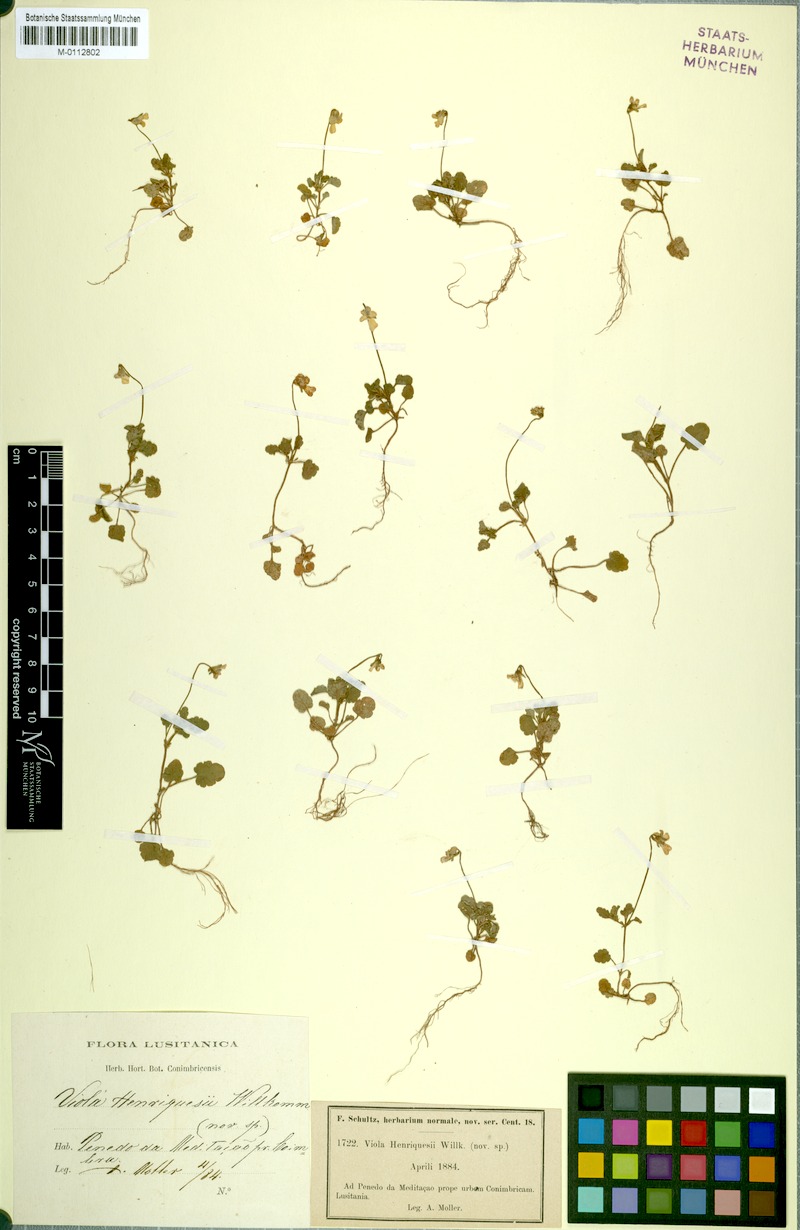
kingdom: Plantae
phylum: Tracheophyta
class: Magnoliopsida
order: Malpighiales
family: Violaceae
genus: Viola
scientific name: Viola kitaibeliana
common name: Dwarf pansy
